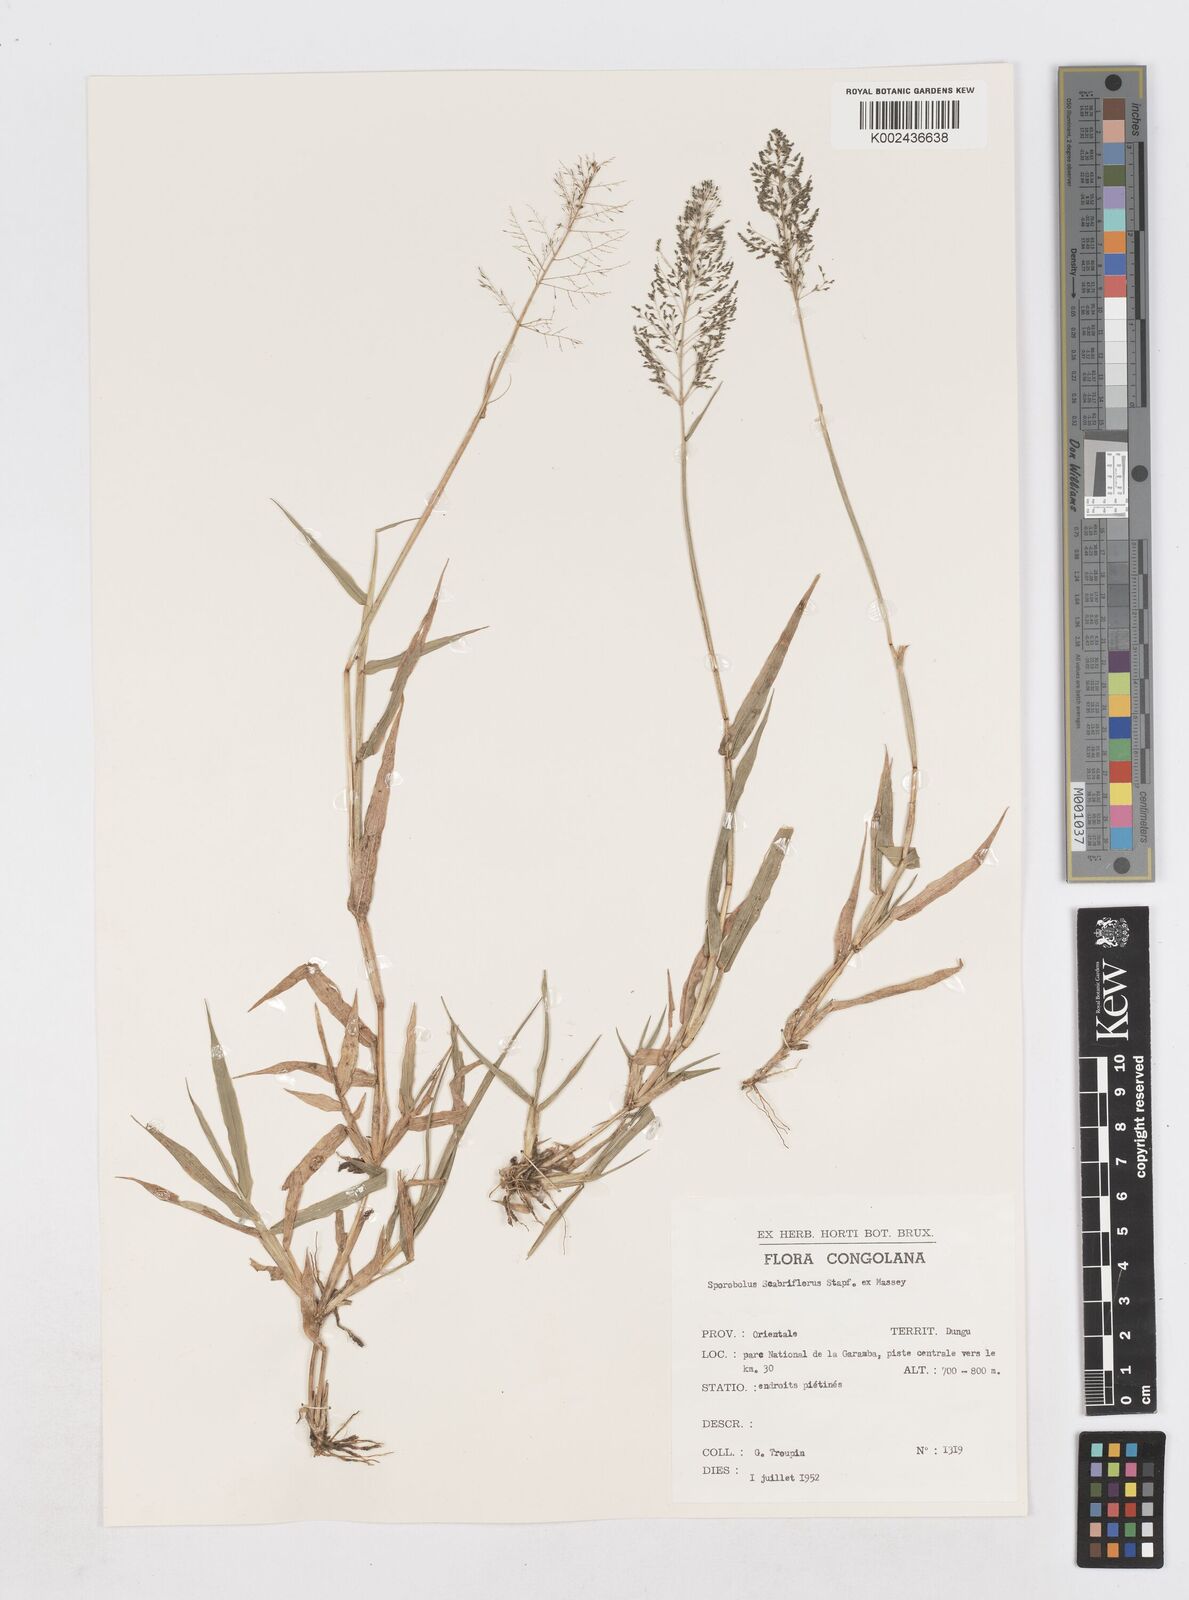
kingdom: Plantae
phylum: Tracheophyta
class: Liliopsida
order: Poales
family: Poaceae
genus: Sporobolus
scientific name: Sporobolus microprotus
